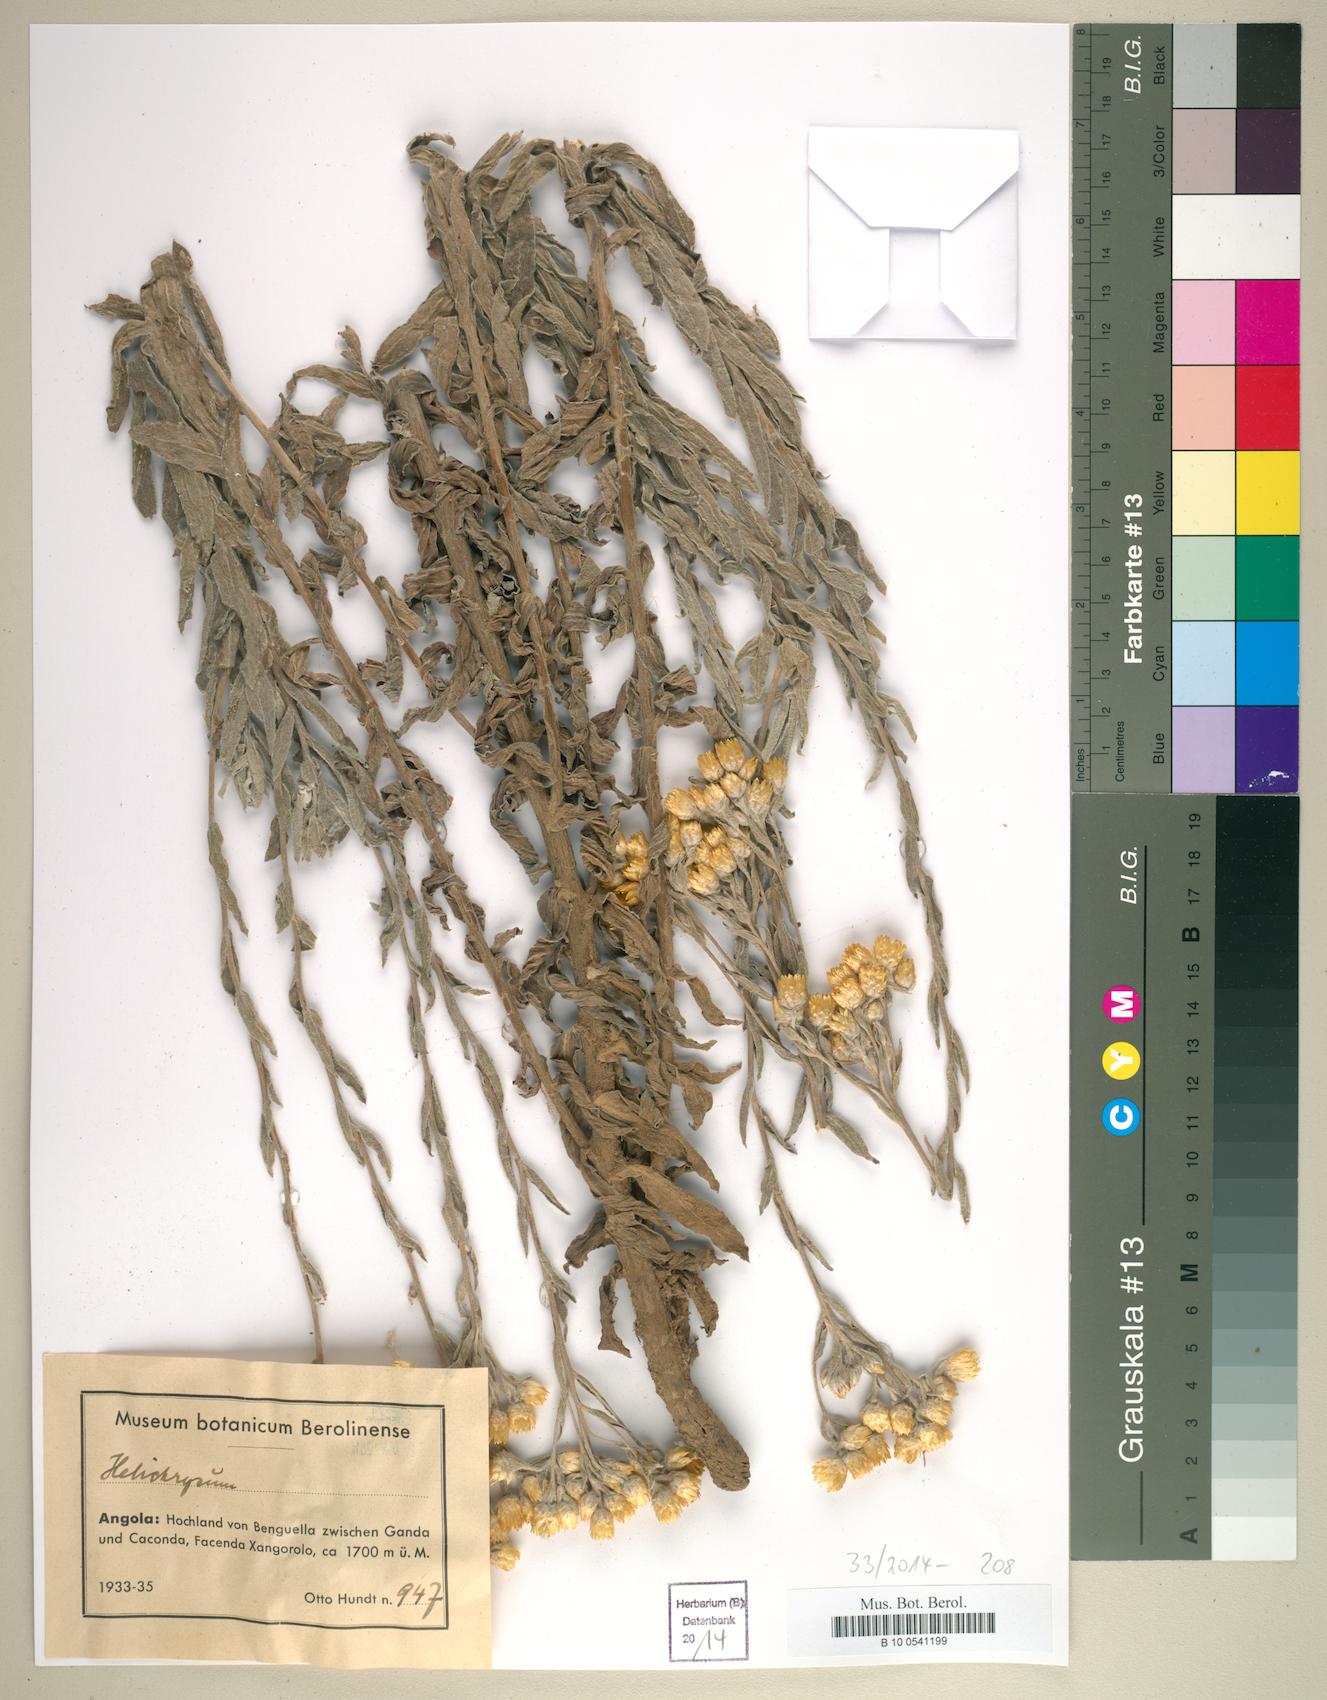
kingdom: Plantae
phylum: Tracheophyta
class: Magnoliopsida
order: Asterales
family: Asteraceae
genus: Helichrysum
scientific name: Helichrysum
